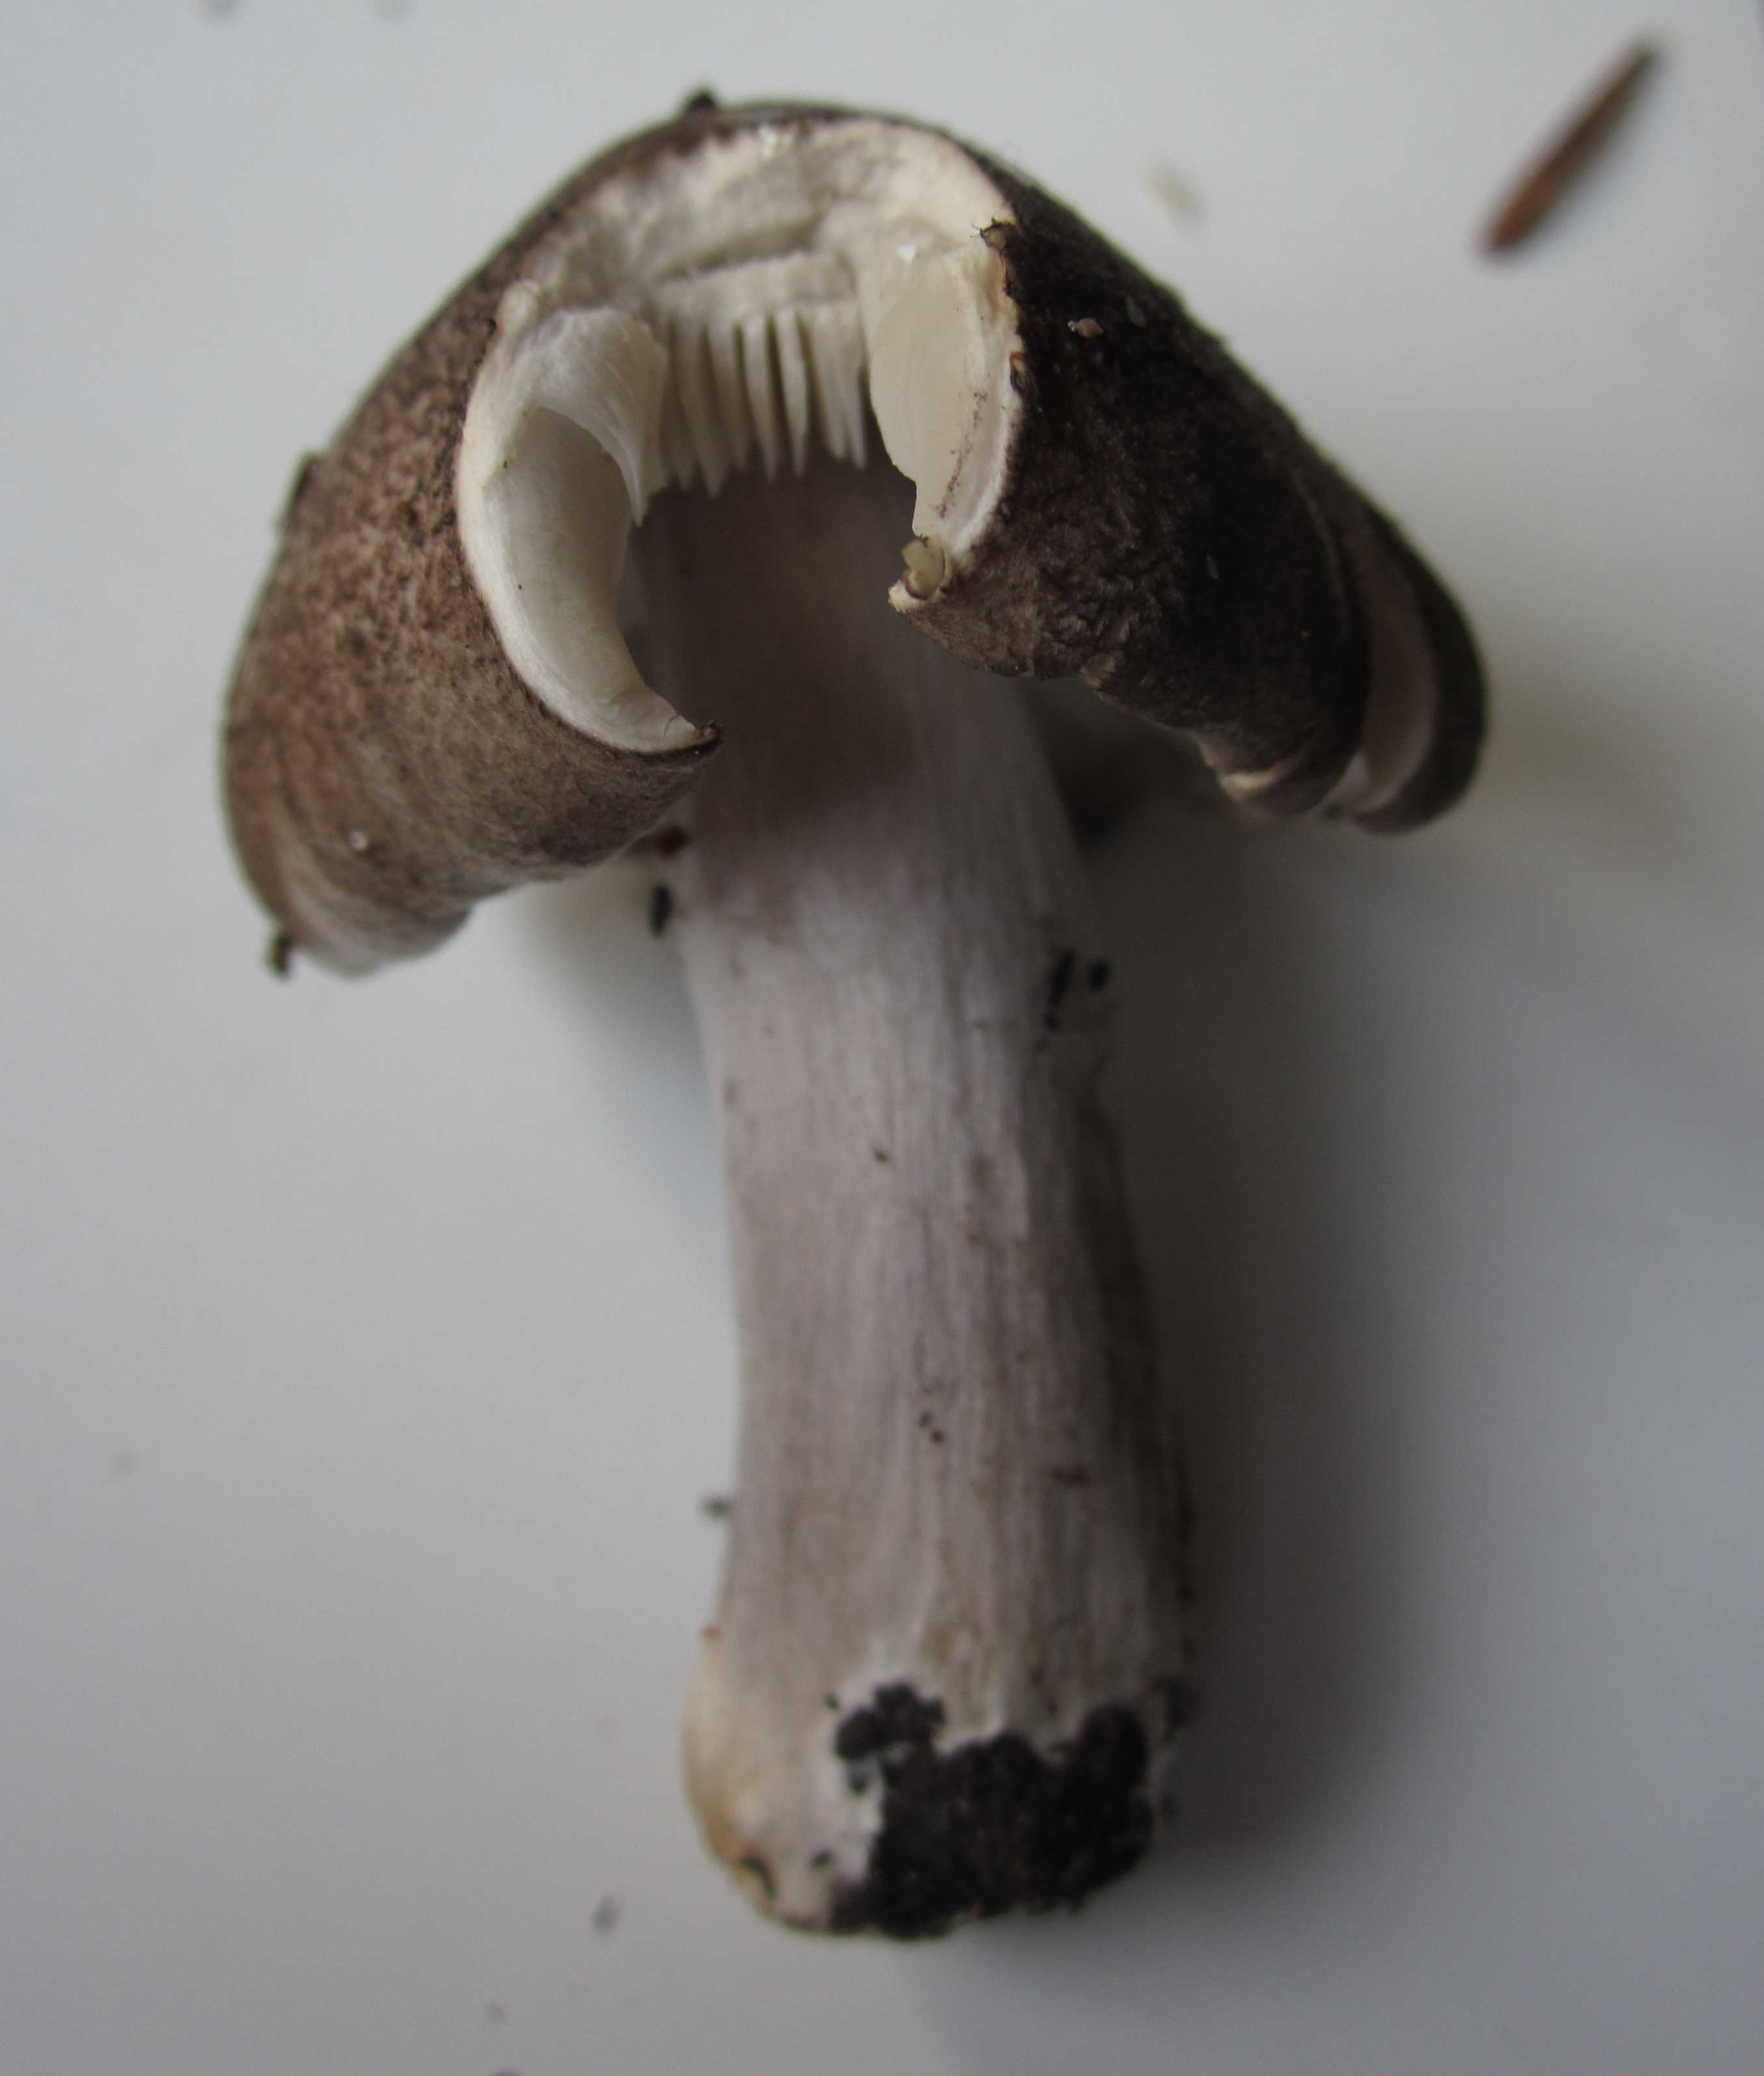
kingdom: Fungi
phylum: Basidiomycota
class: Agaricomycetes
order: Agaricales
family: Tricholomataceae
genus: Tricholoma
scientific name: Tricholoma scalpturatum
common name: gulplettet ridderhat
